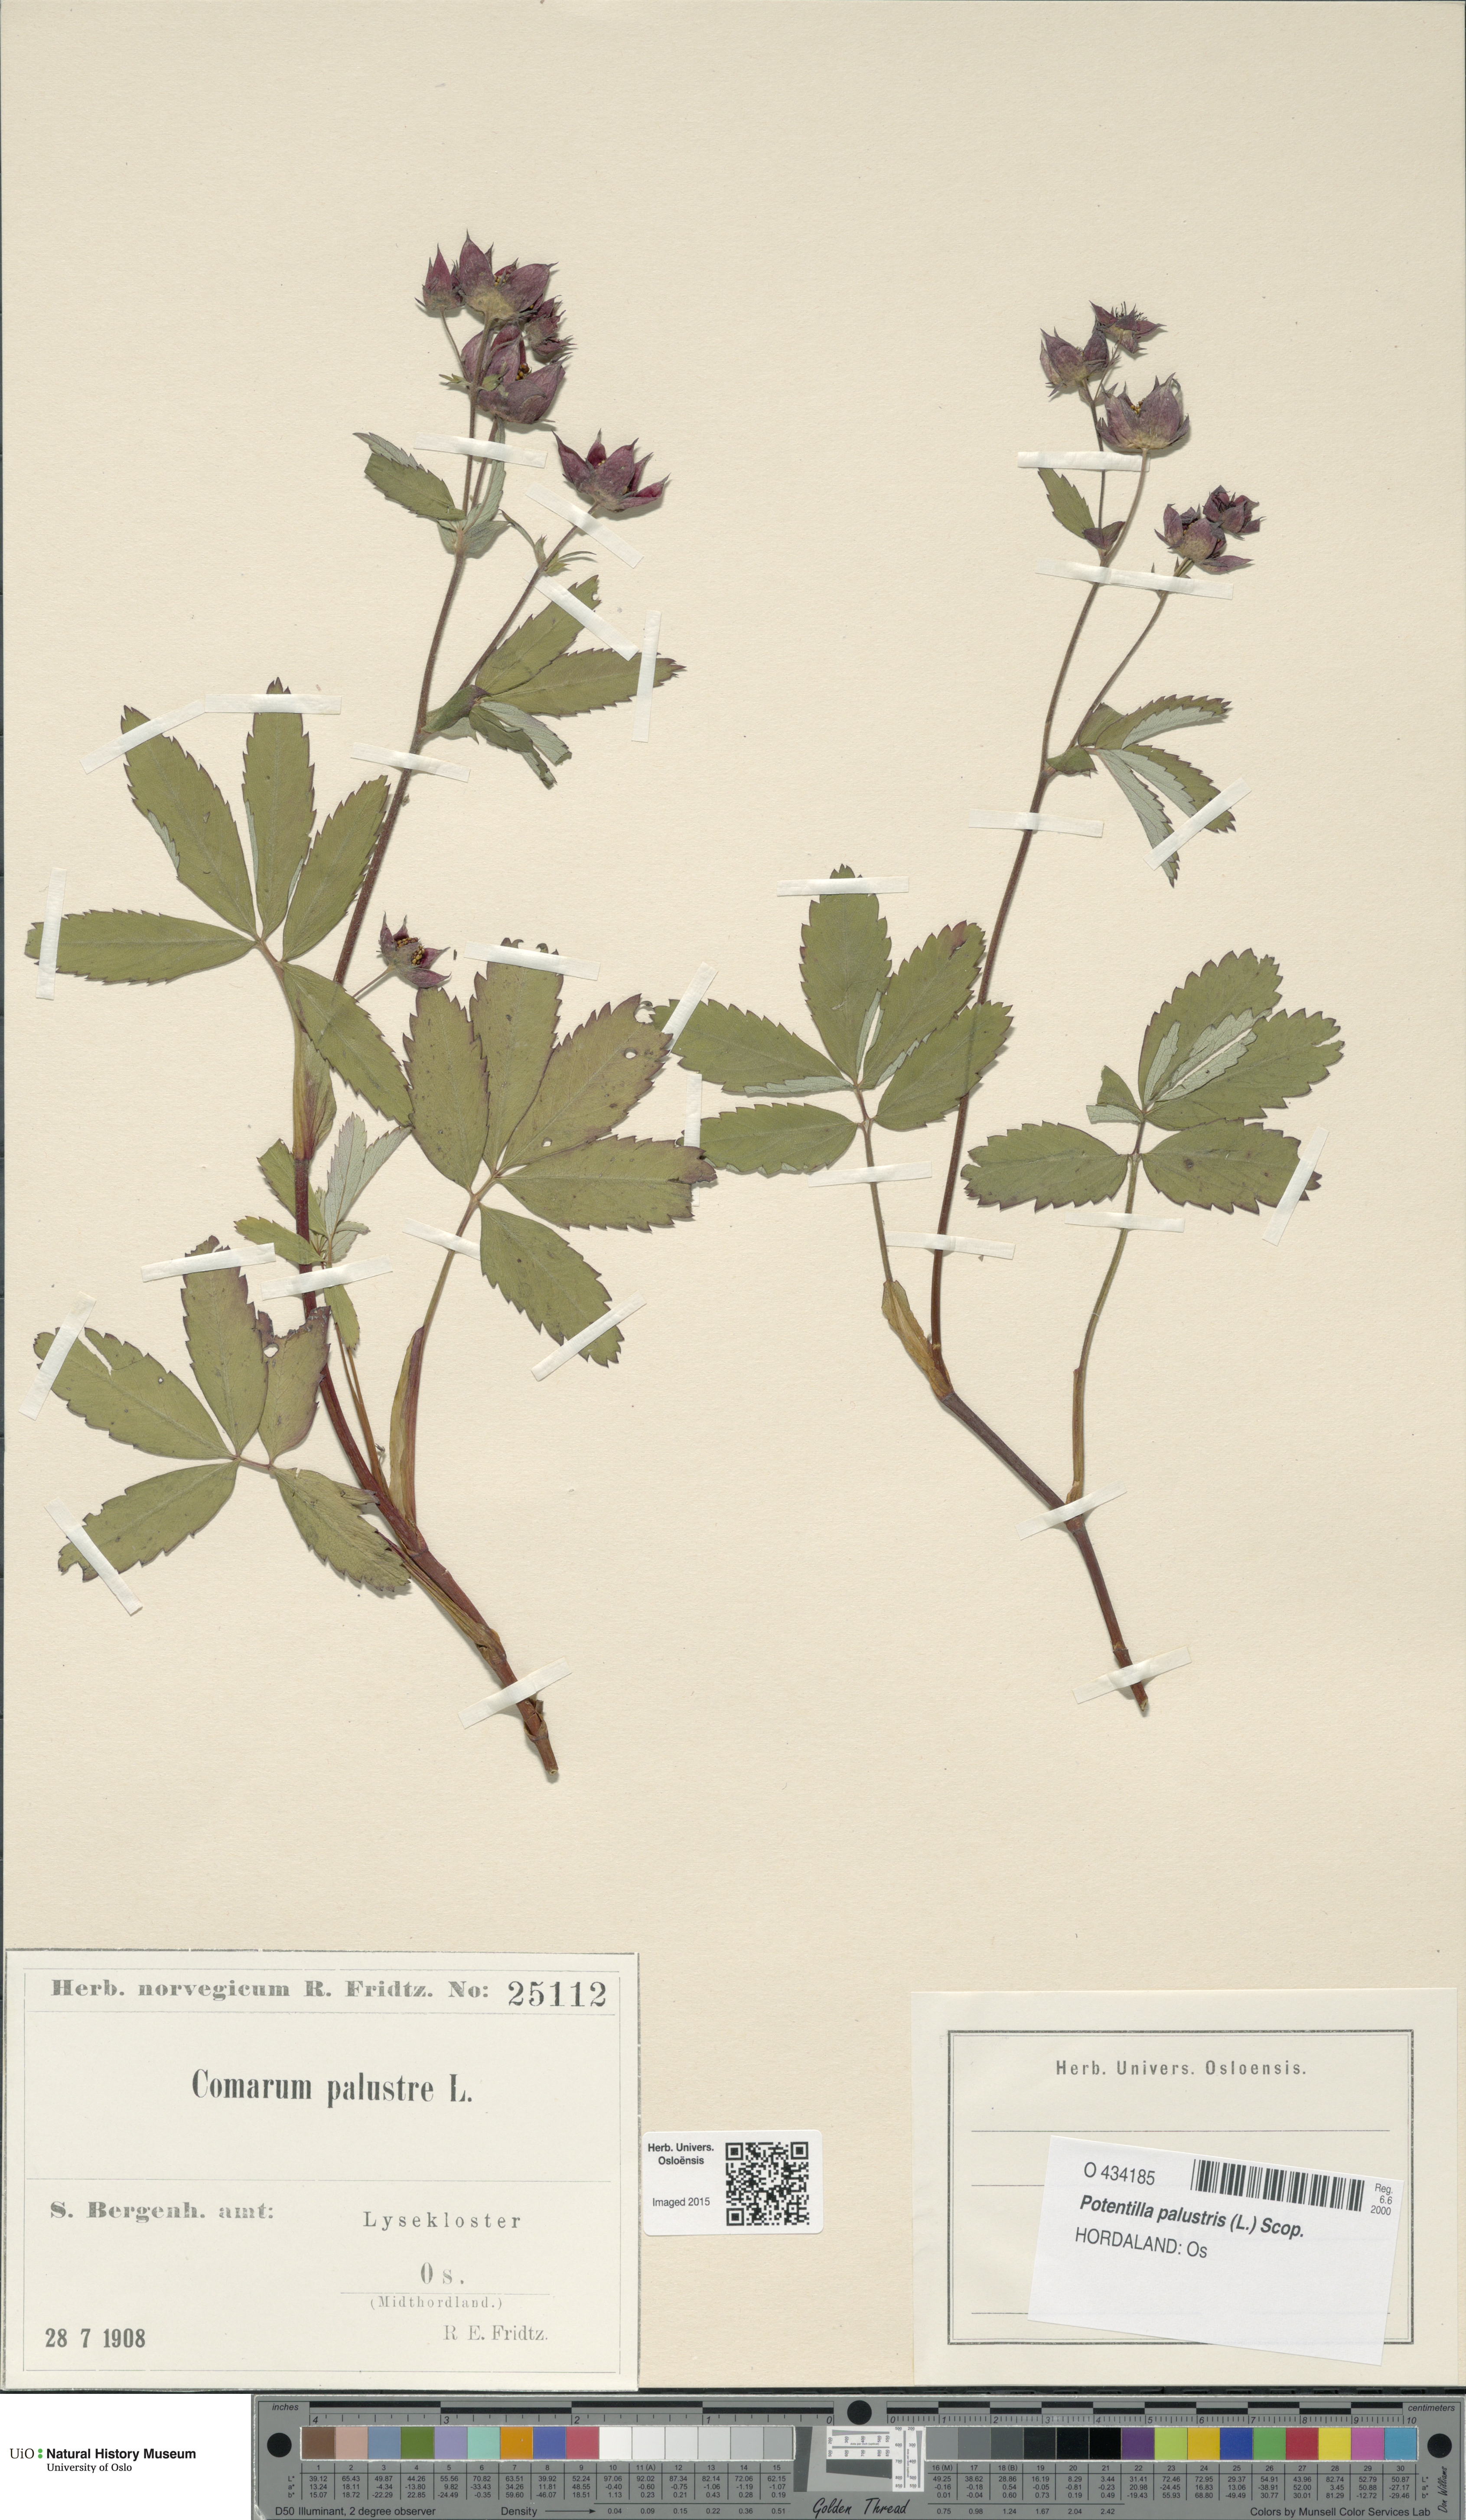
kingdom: Plantae
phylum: Tracheophyta
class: Magnoliopsida
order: Rosales
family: Rosaceae
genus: Comarum
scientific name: Comarum palustre
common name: Marsh cinquefoil
